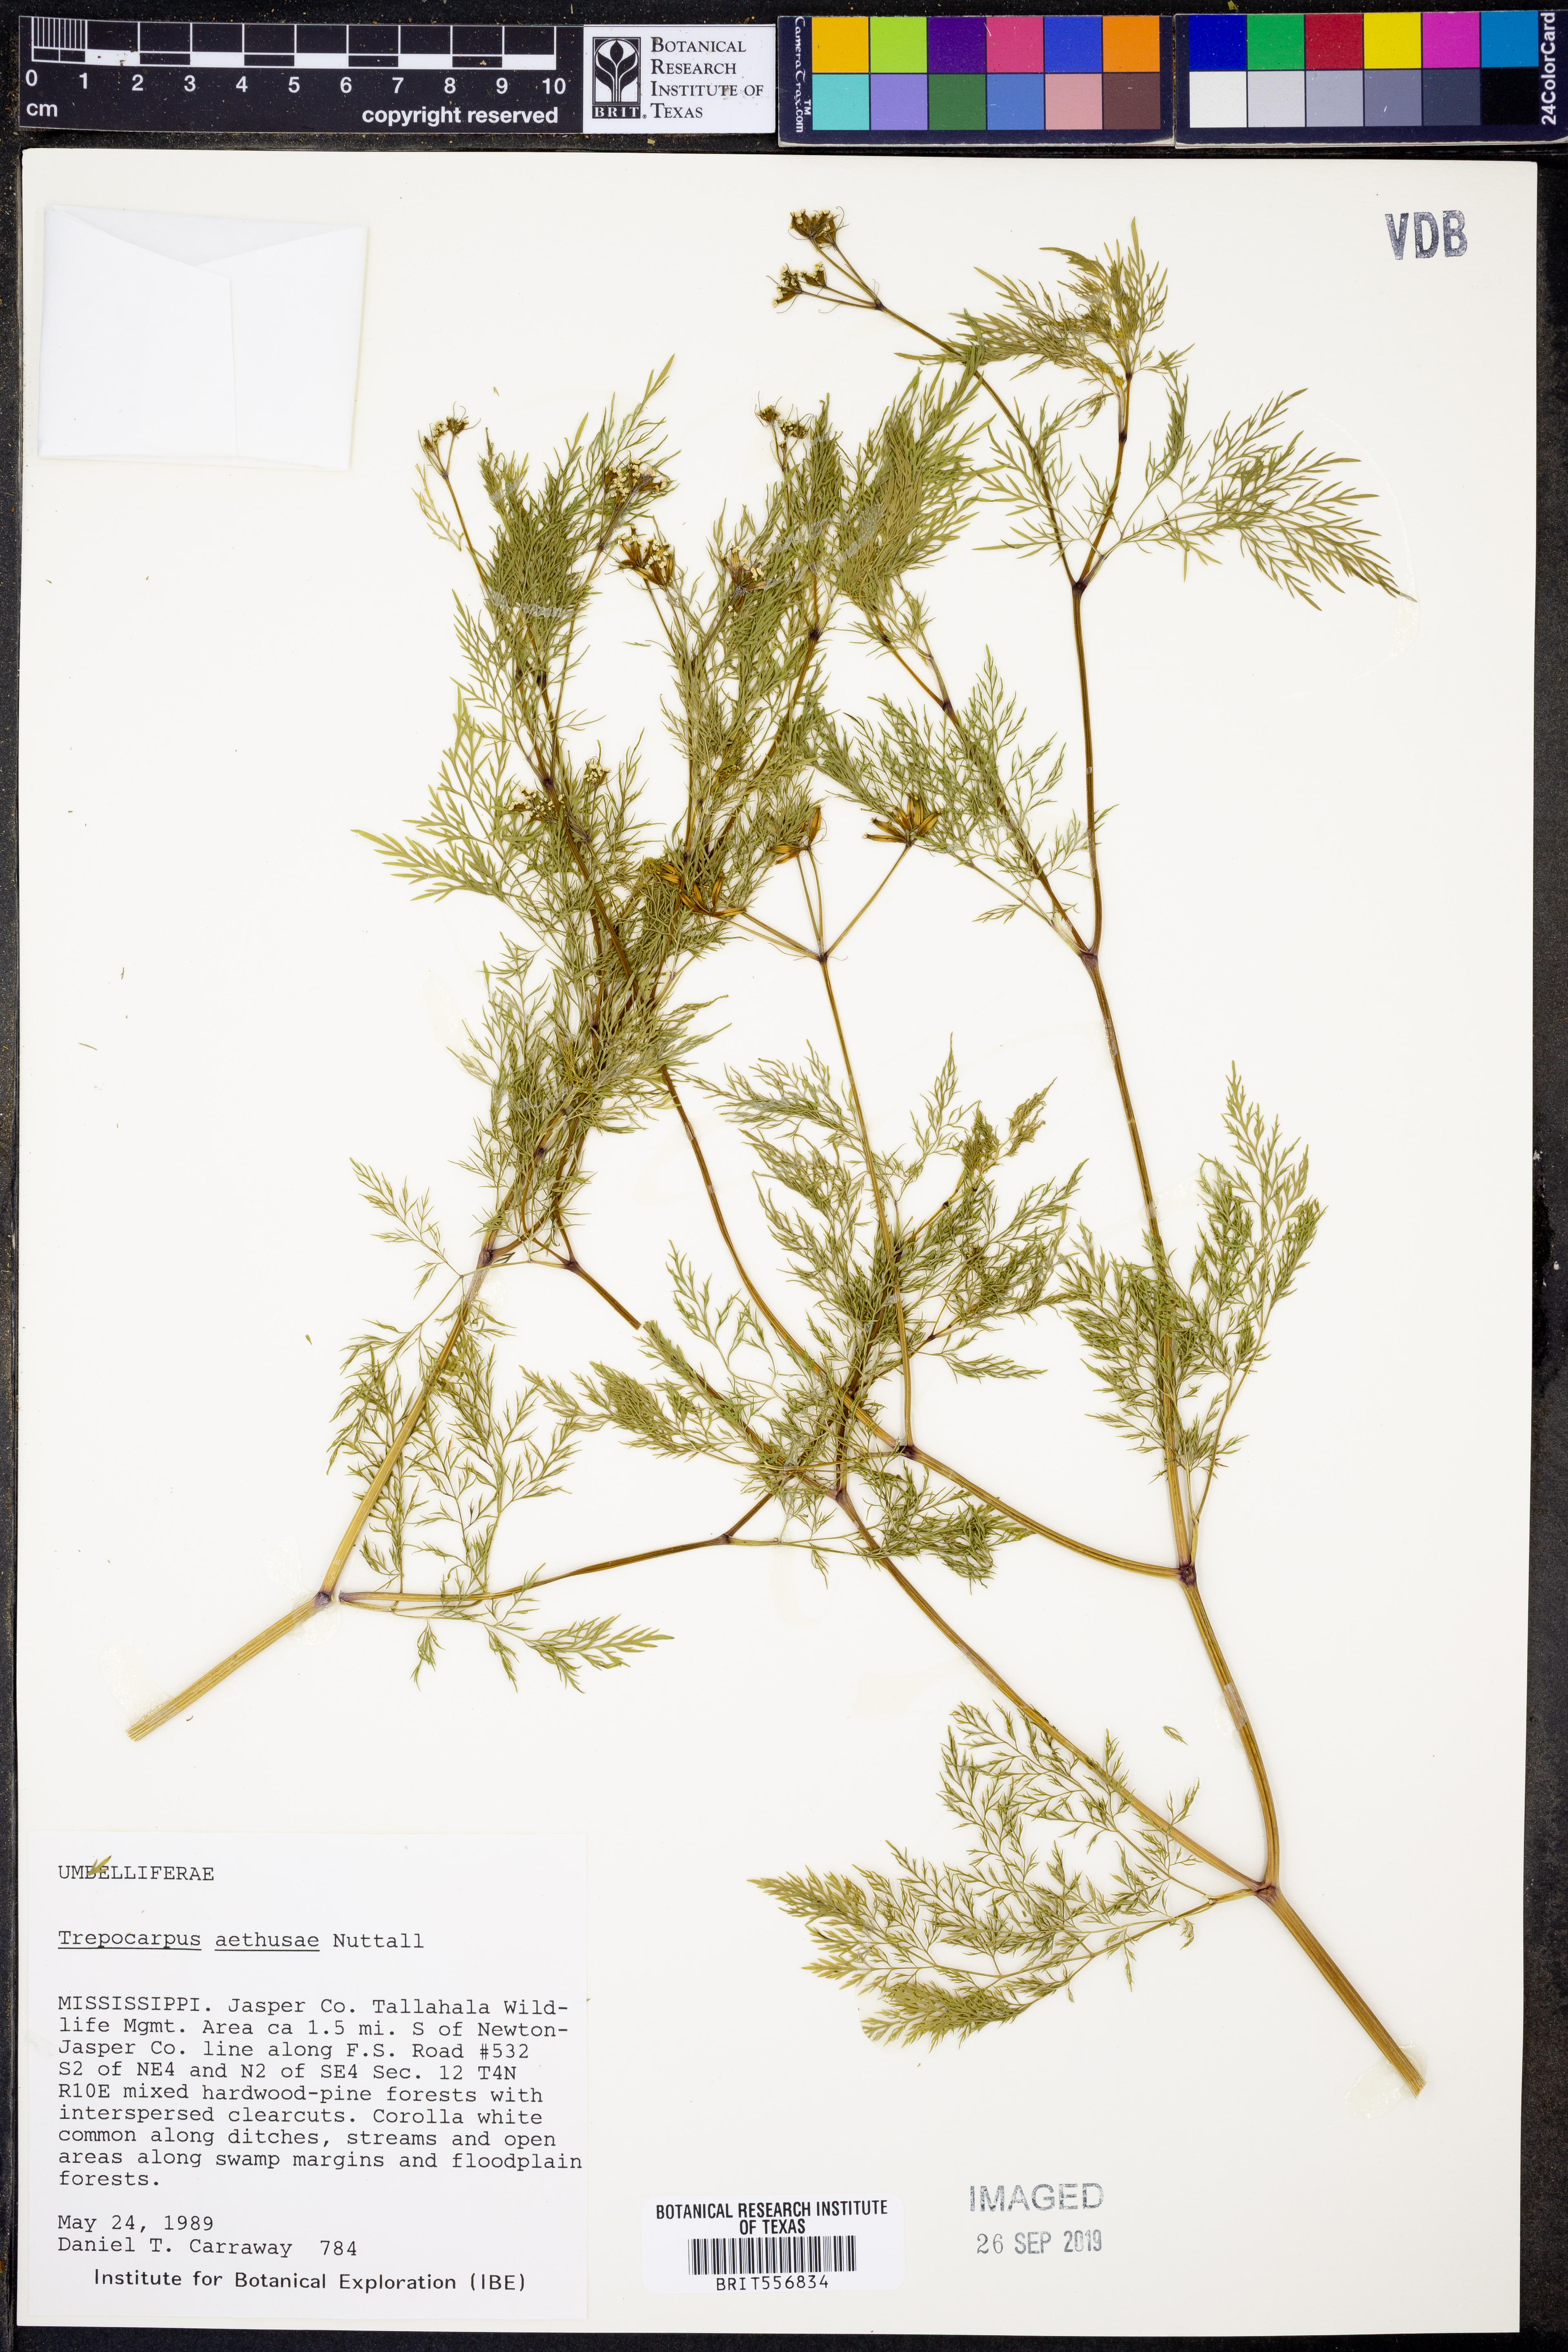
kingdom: Plantae
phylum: Tracheophyta
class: Magnoliopsida
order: Apiales
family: Apiaceae
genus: Trepocarpus
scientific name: Trepocarpus aethusae
